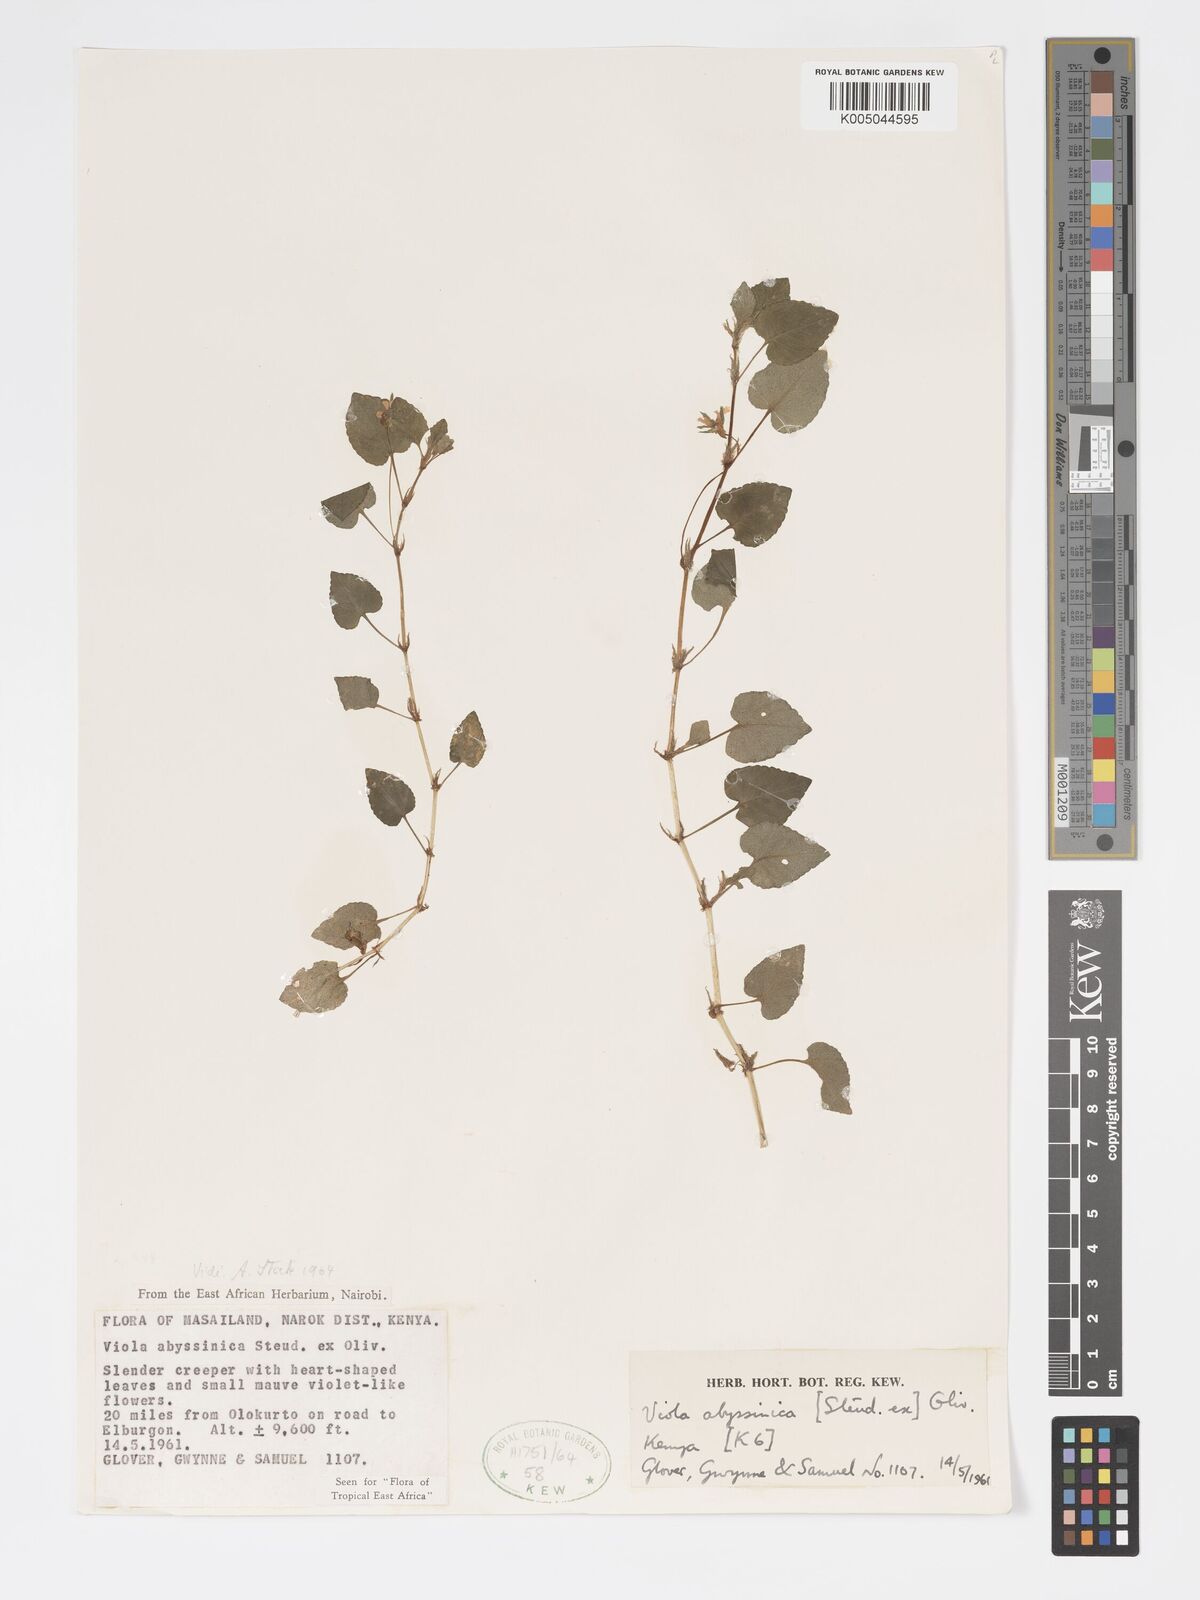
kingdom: Plantae
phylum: Tracheophyta
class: Magnoliopsida
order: Malpighiales
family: Violaceae
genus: Viola
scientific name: Viola abyssinica
